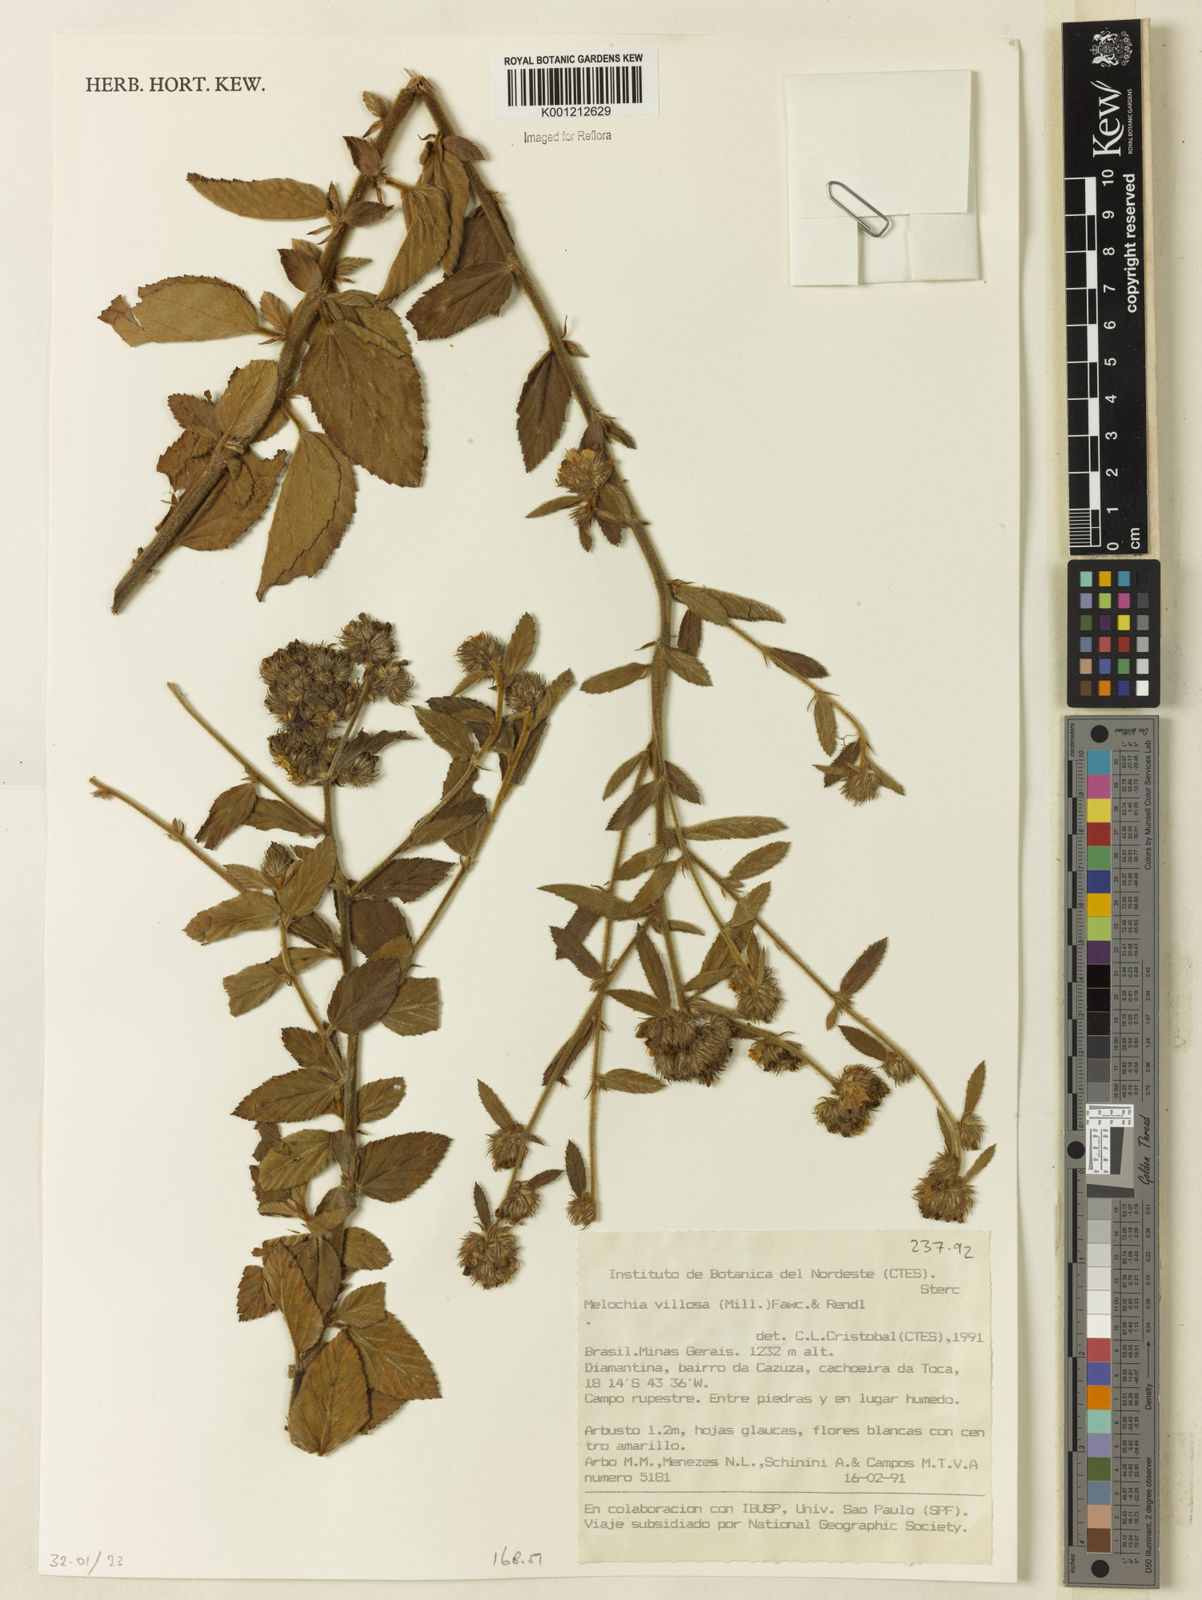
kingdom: Plantae
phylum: Tracheophyta
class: Magnoliopsida
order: Malvales
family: Malvaceae
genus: Melochia
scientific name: Melochia spicata
